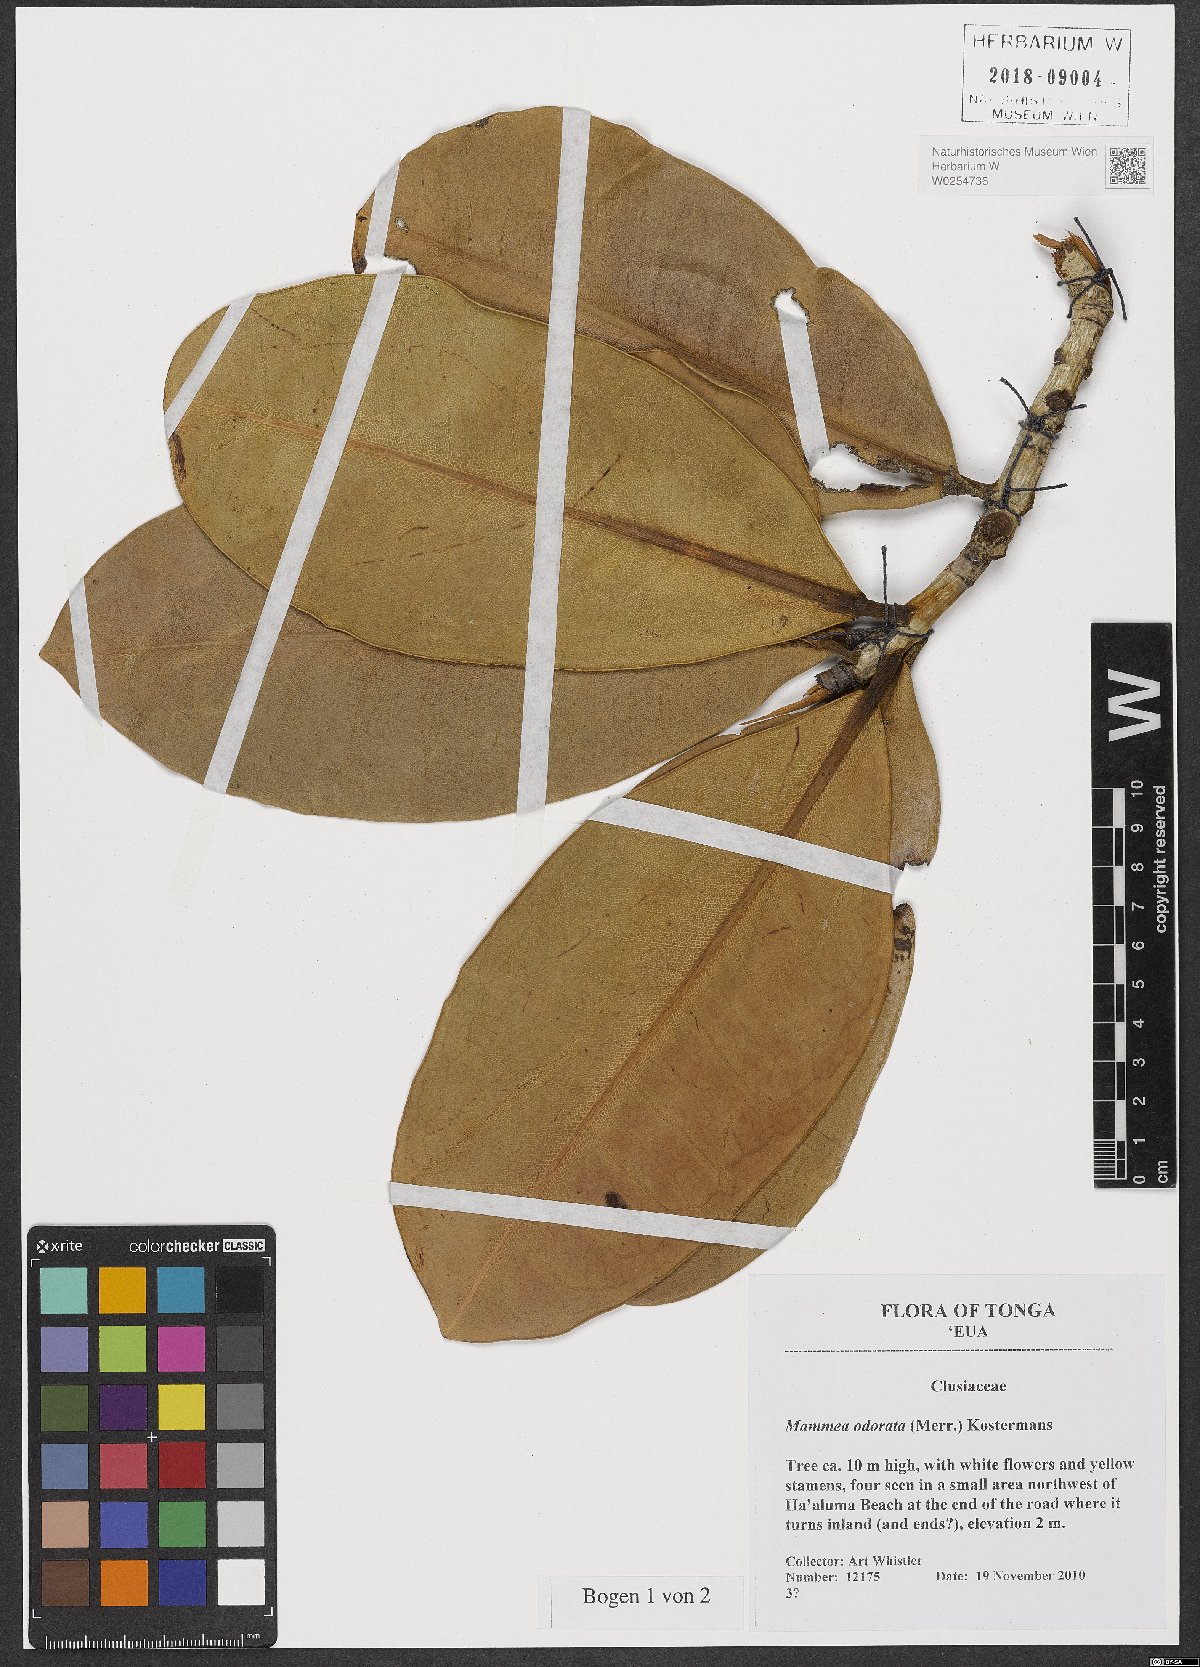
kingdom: Plantae
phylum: Tracheophyta
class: Magnoliopsida
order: Malpighiales
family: Calophyllaceae
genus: Mammea
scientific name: Mammea odorata
